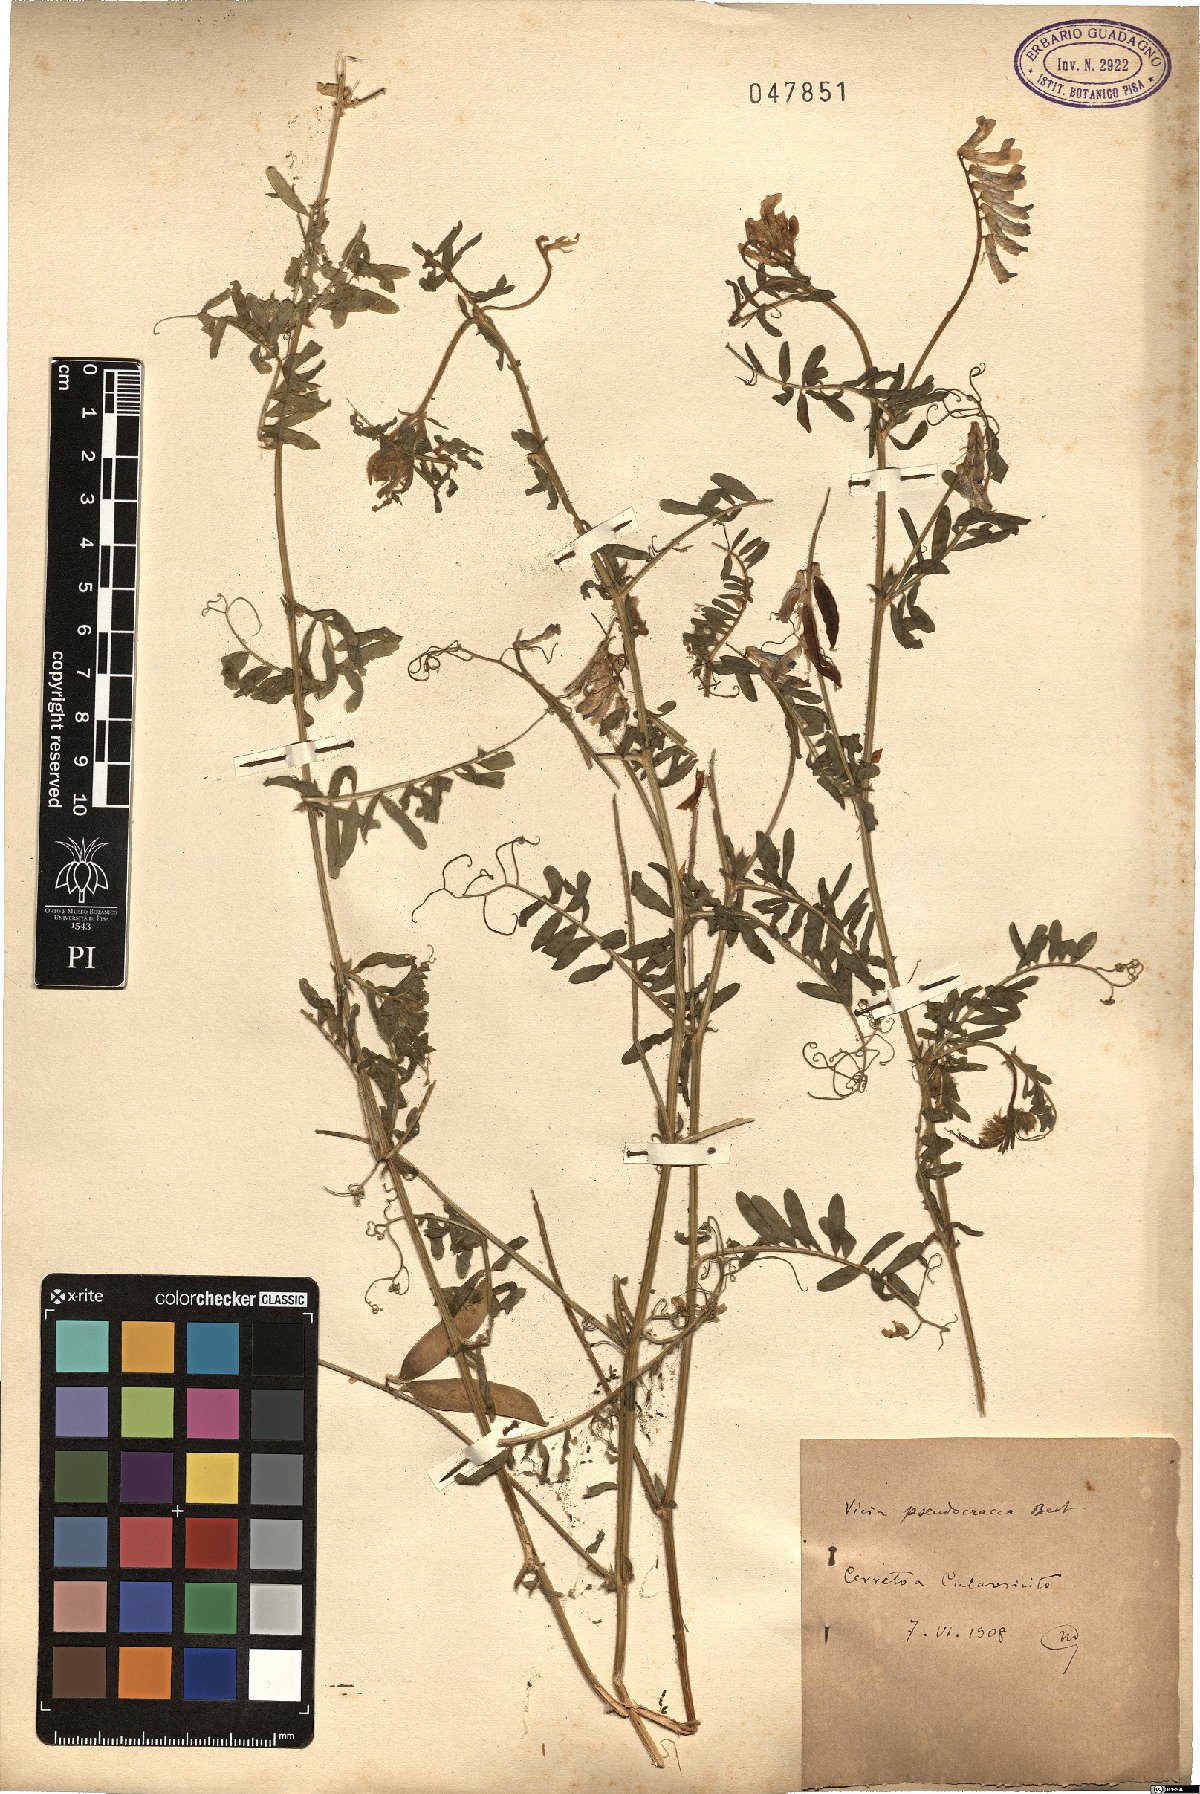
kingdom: Plantae
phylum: Tracheophyta
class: Magnoliopsida
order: Fabales
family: Fabaceae
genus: Vicia
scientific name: Vicia villosa
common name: Fodder vetch
